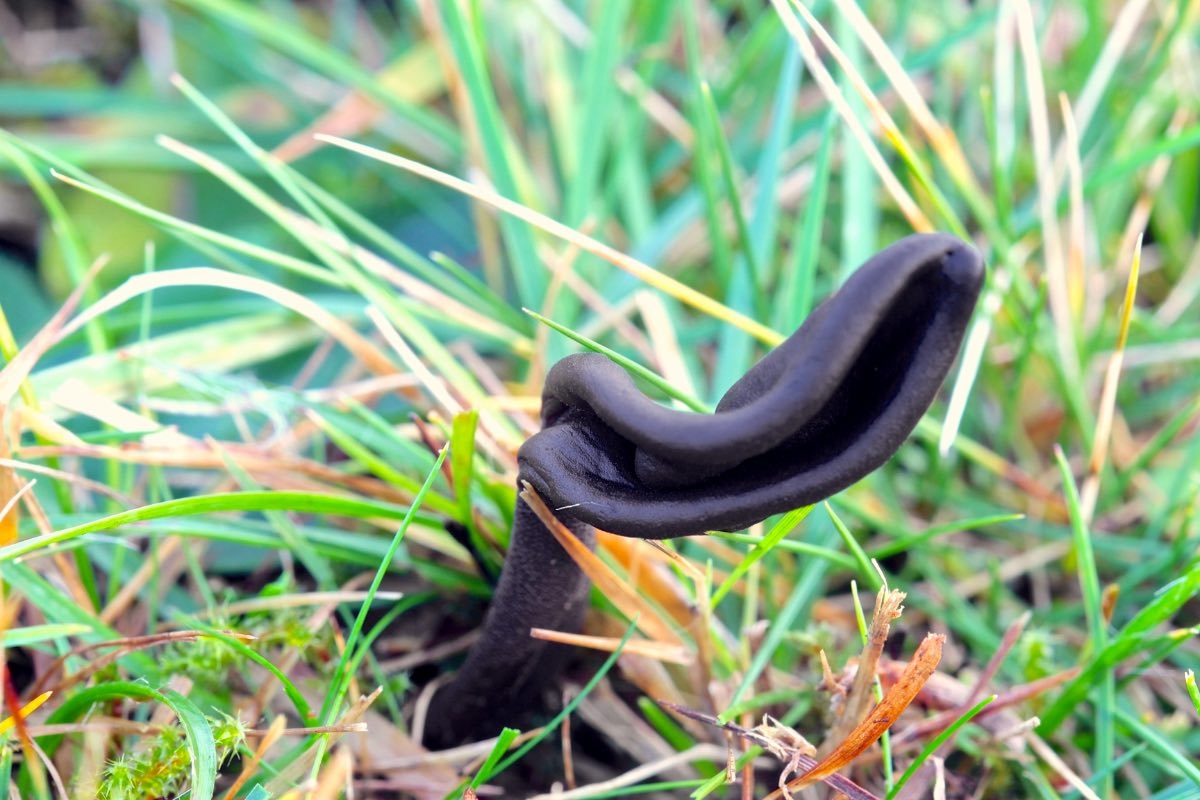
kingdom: Fungi
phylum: Ascomycota
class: Geoglossomycetes
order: Geoglossales
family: Geoglossaceae
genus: Geoglossum
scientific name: Geoglossum
